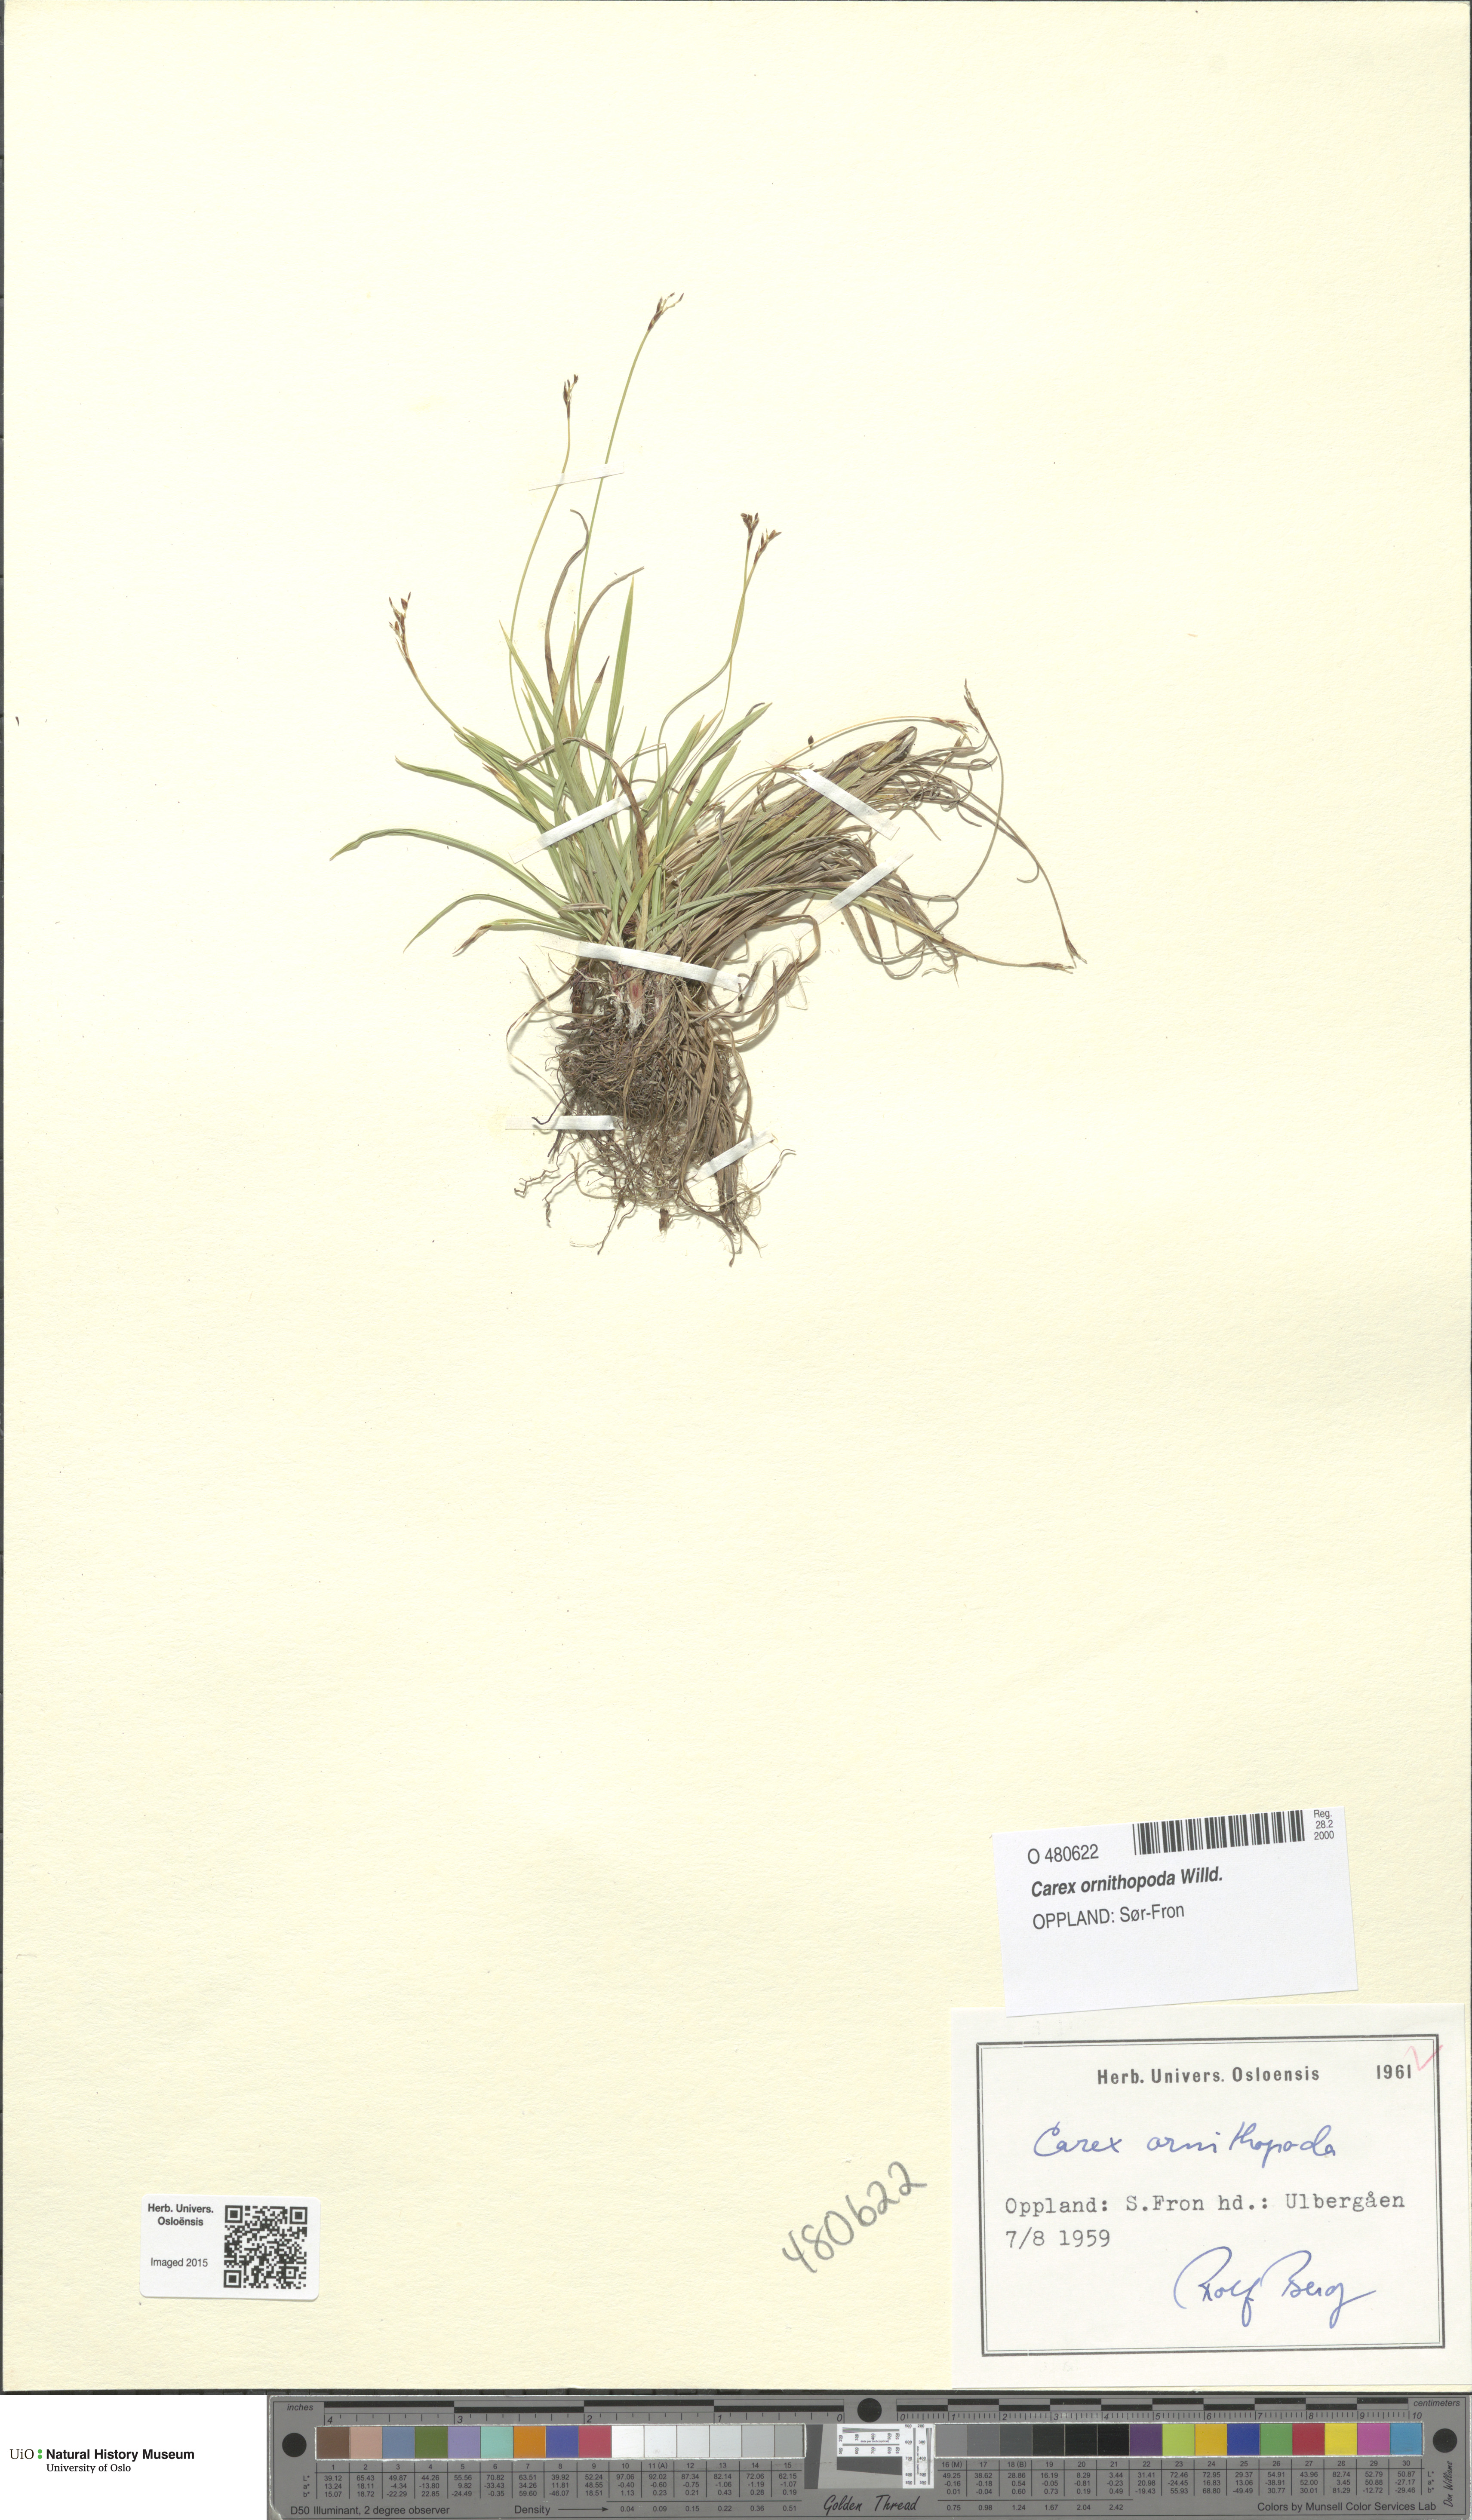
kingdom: Plantae
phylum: Tracheophyta
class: Liliopsida
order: Poales
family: Cyperaceae
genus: Carex
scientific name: Carex ornithopoda
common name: Bird's-foot sedge
